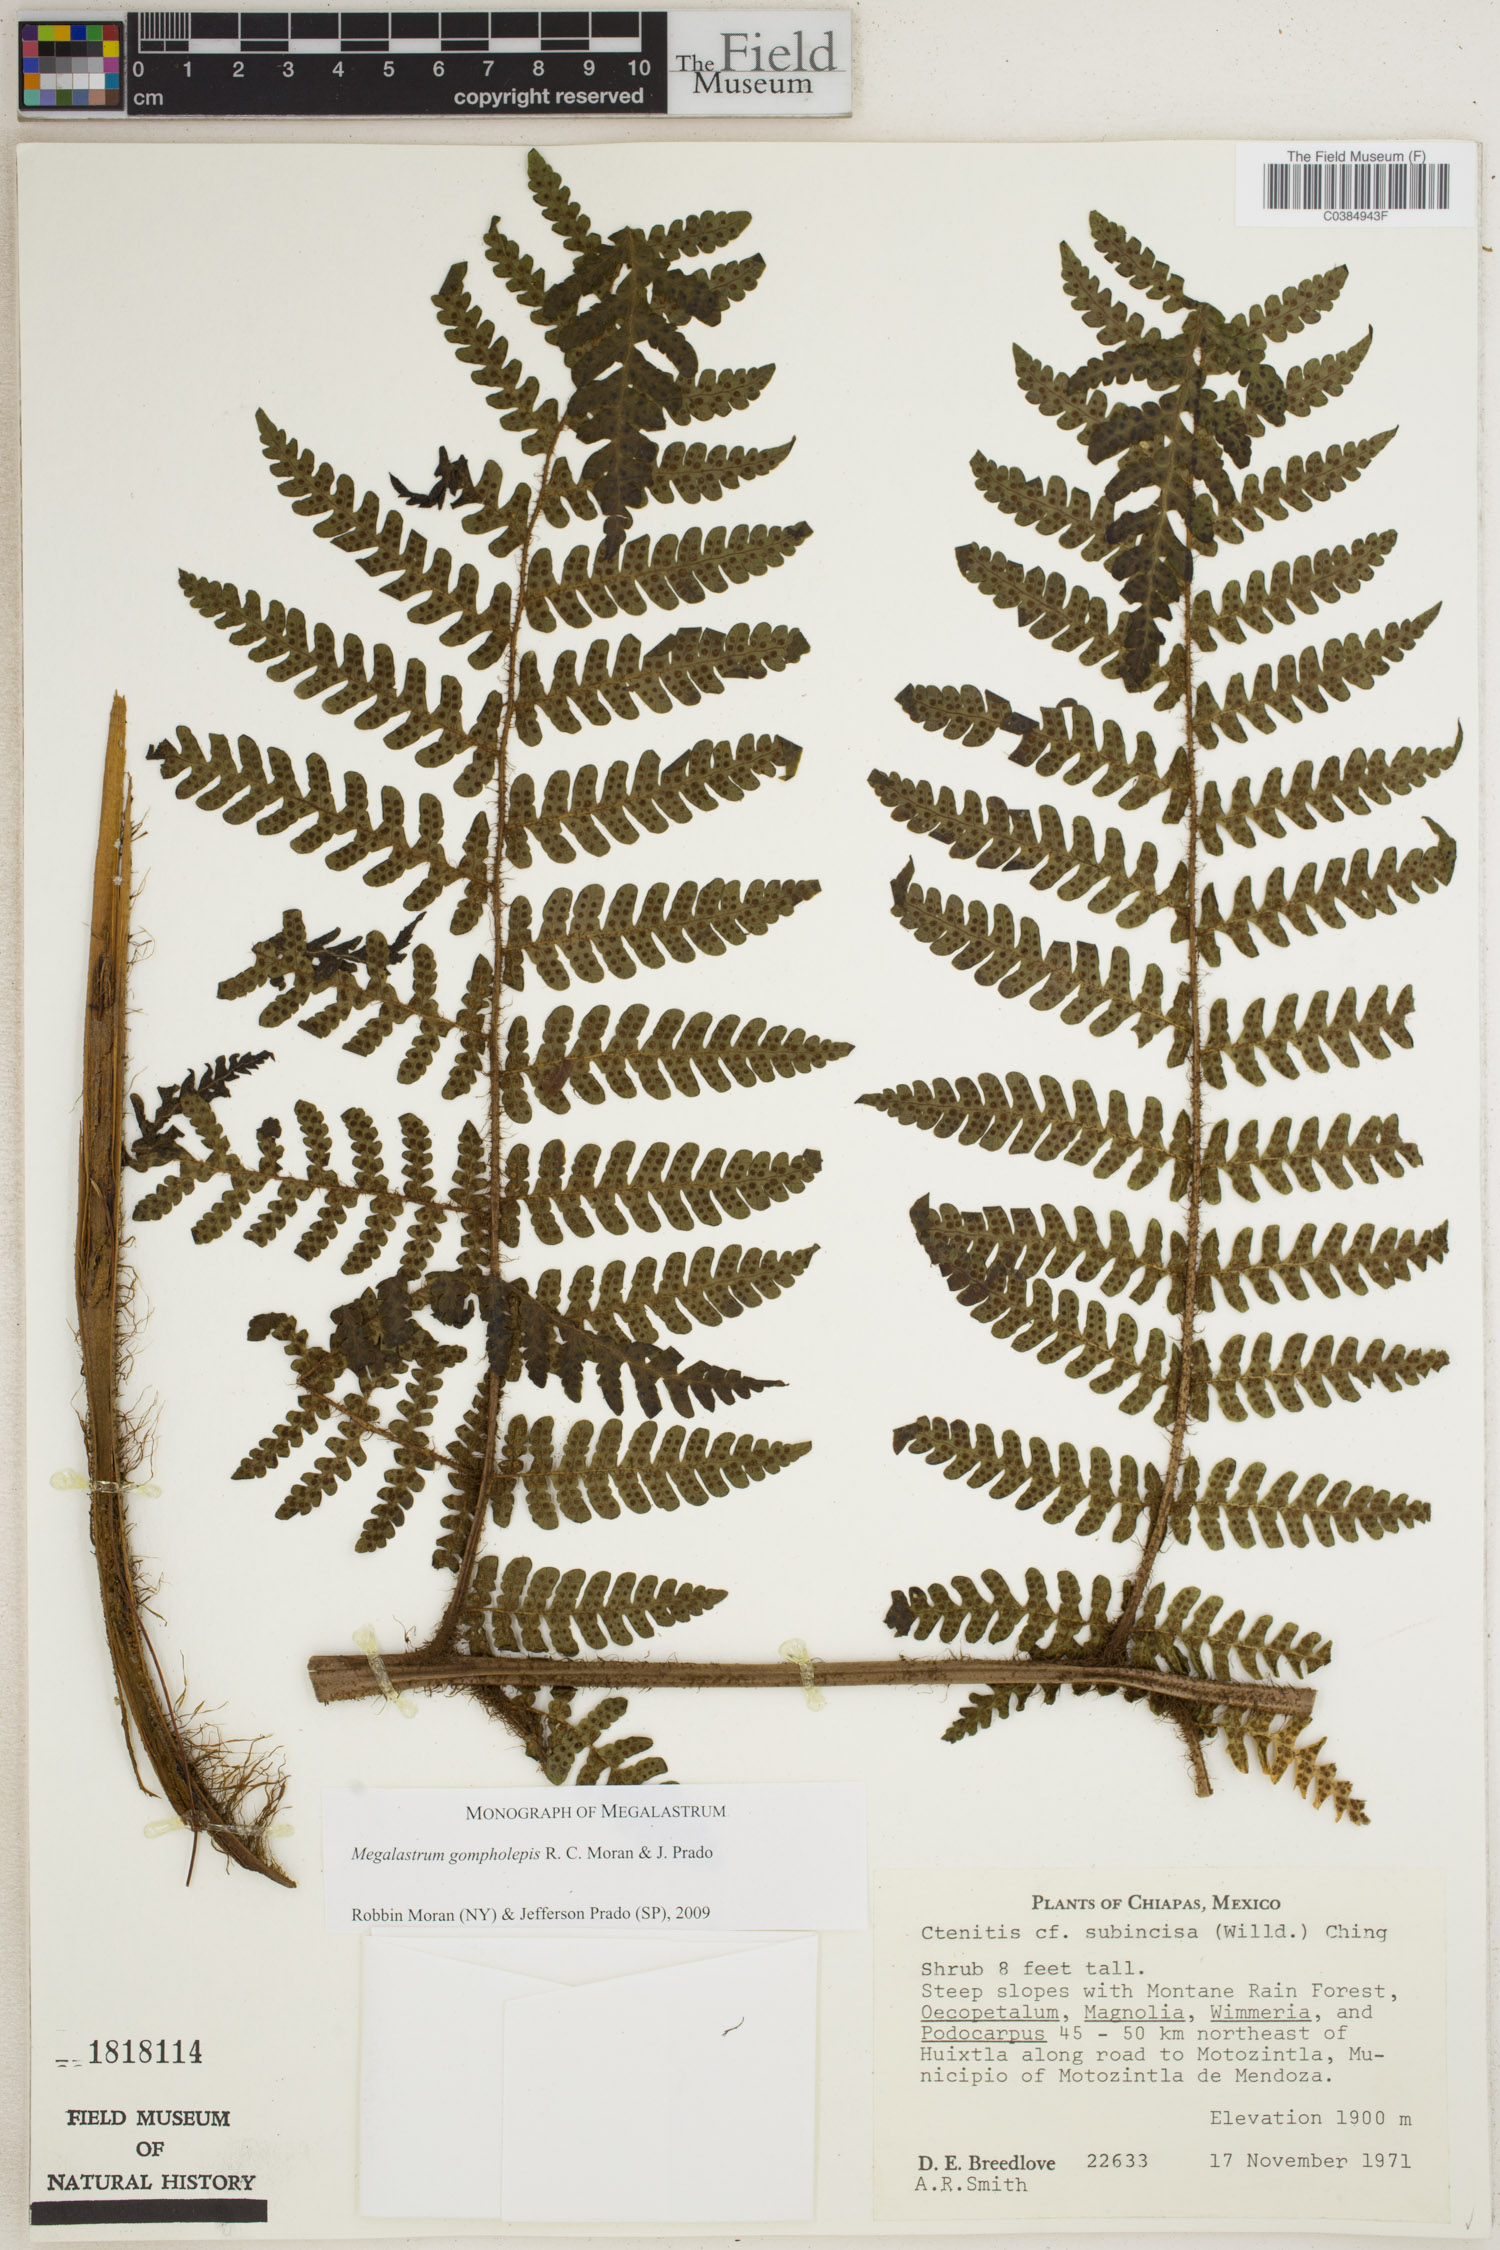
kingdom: Plantae
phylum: Tracheophyta
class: Polypodiopsida
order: Polypodiales
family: Dryopteridaceae
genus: Megalastrum
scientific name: Megalastrum gompholepis
